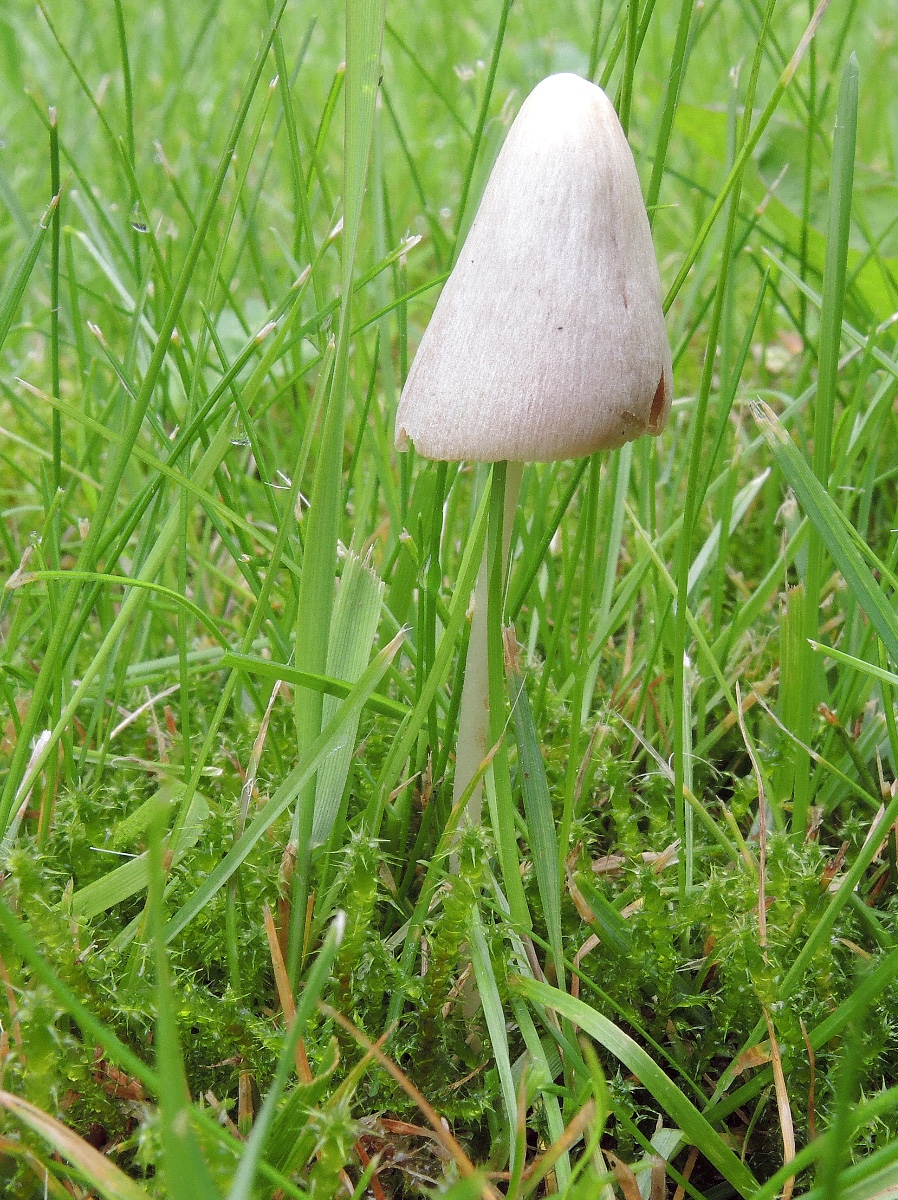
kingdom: Fungi
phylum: Basidiomycota
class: Agaricomycetes
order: Agaricales
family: Bolbitiaceae
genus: Conocybe
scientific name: Conocybe apala
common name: mælkehvid keglehat
